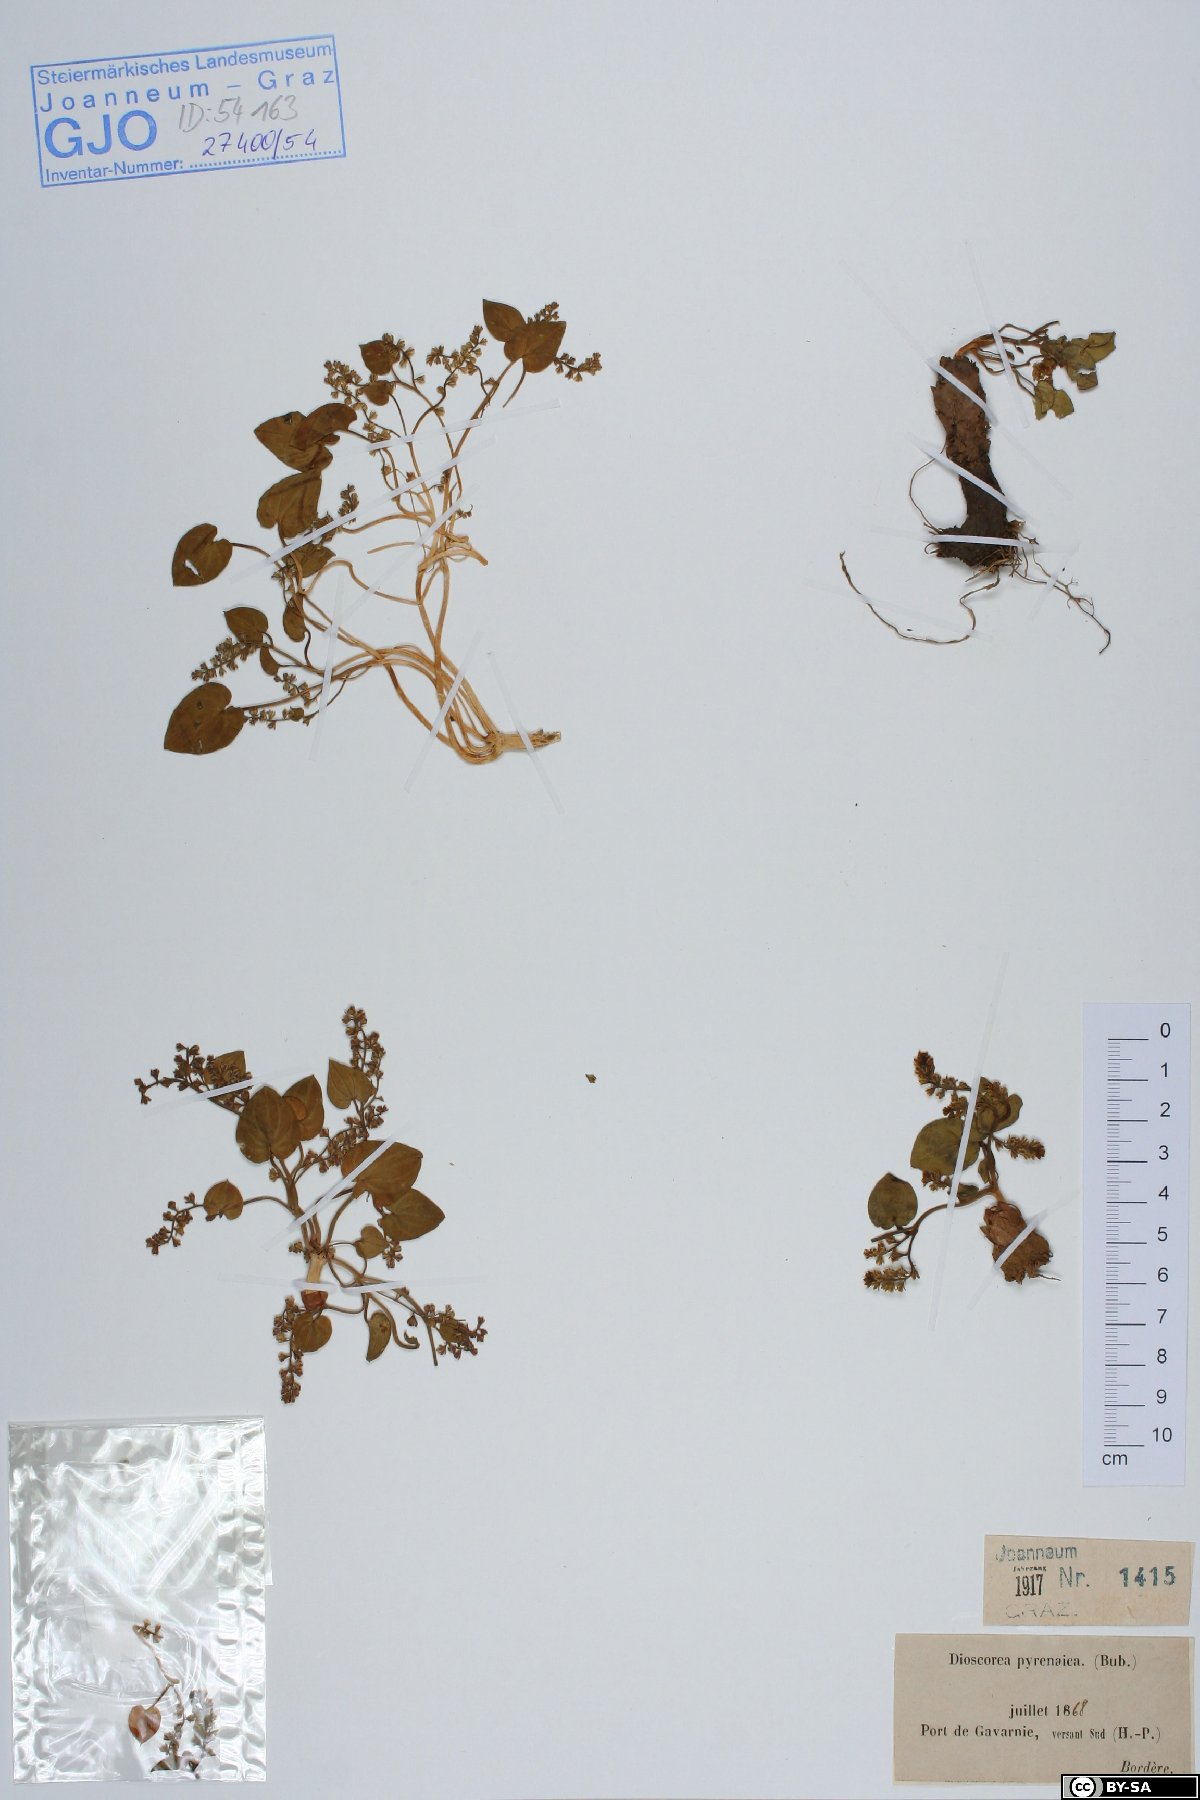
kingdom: Plantae
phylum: Tracheophyta
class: Liliopsida
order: Dioscoreales
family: Dioscoreaceae
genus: Dioscorea
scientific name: Dioscorea pyrenaica
